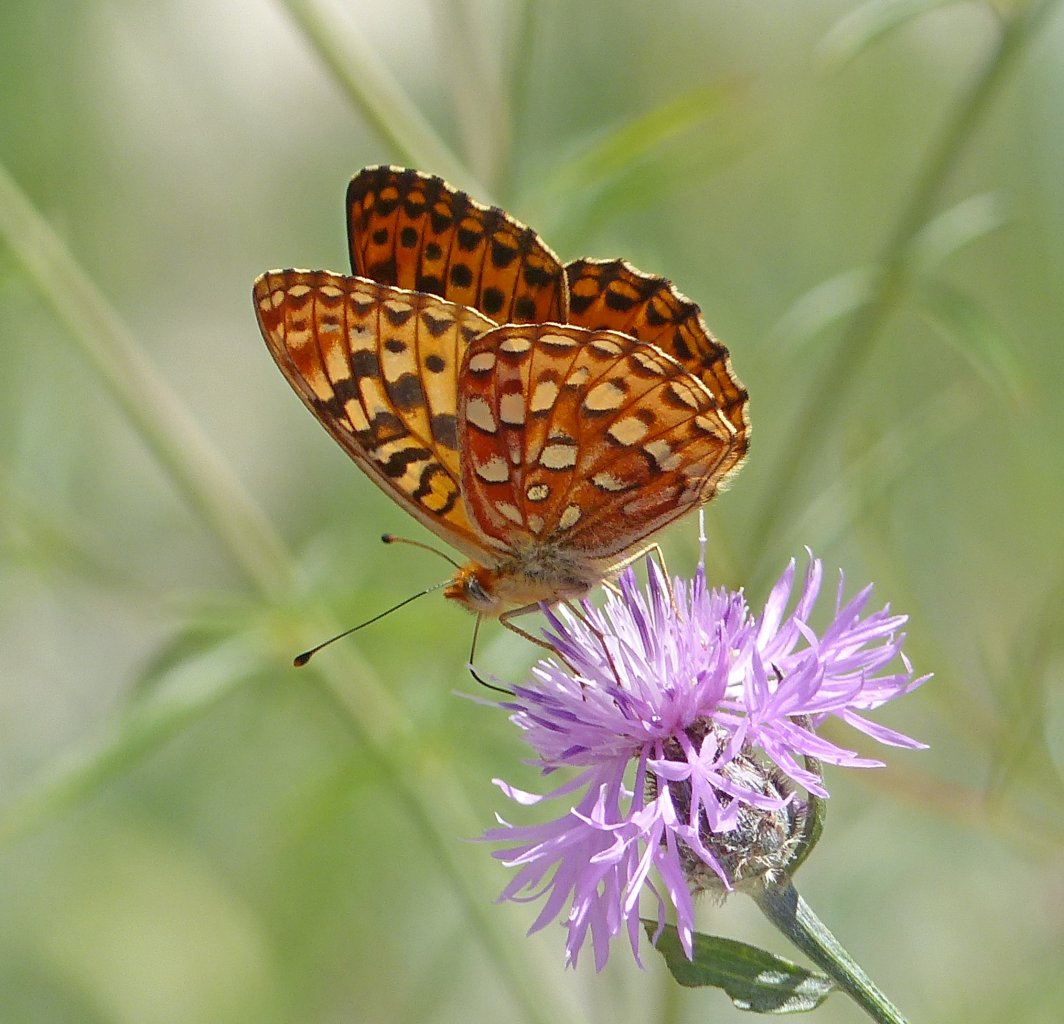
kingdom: Animalia
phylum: Arthropoda
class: Insecta
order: Lepidoptera
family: Nymphalidae
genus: Speyeria
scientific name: Speyeria zerene
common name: Zerene Fritillary
